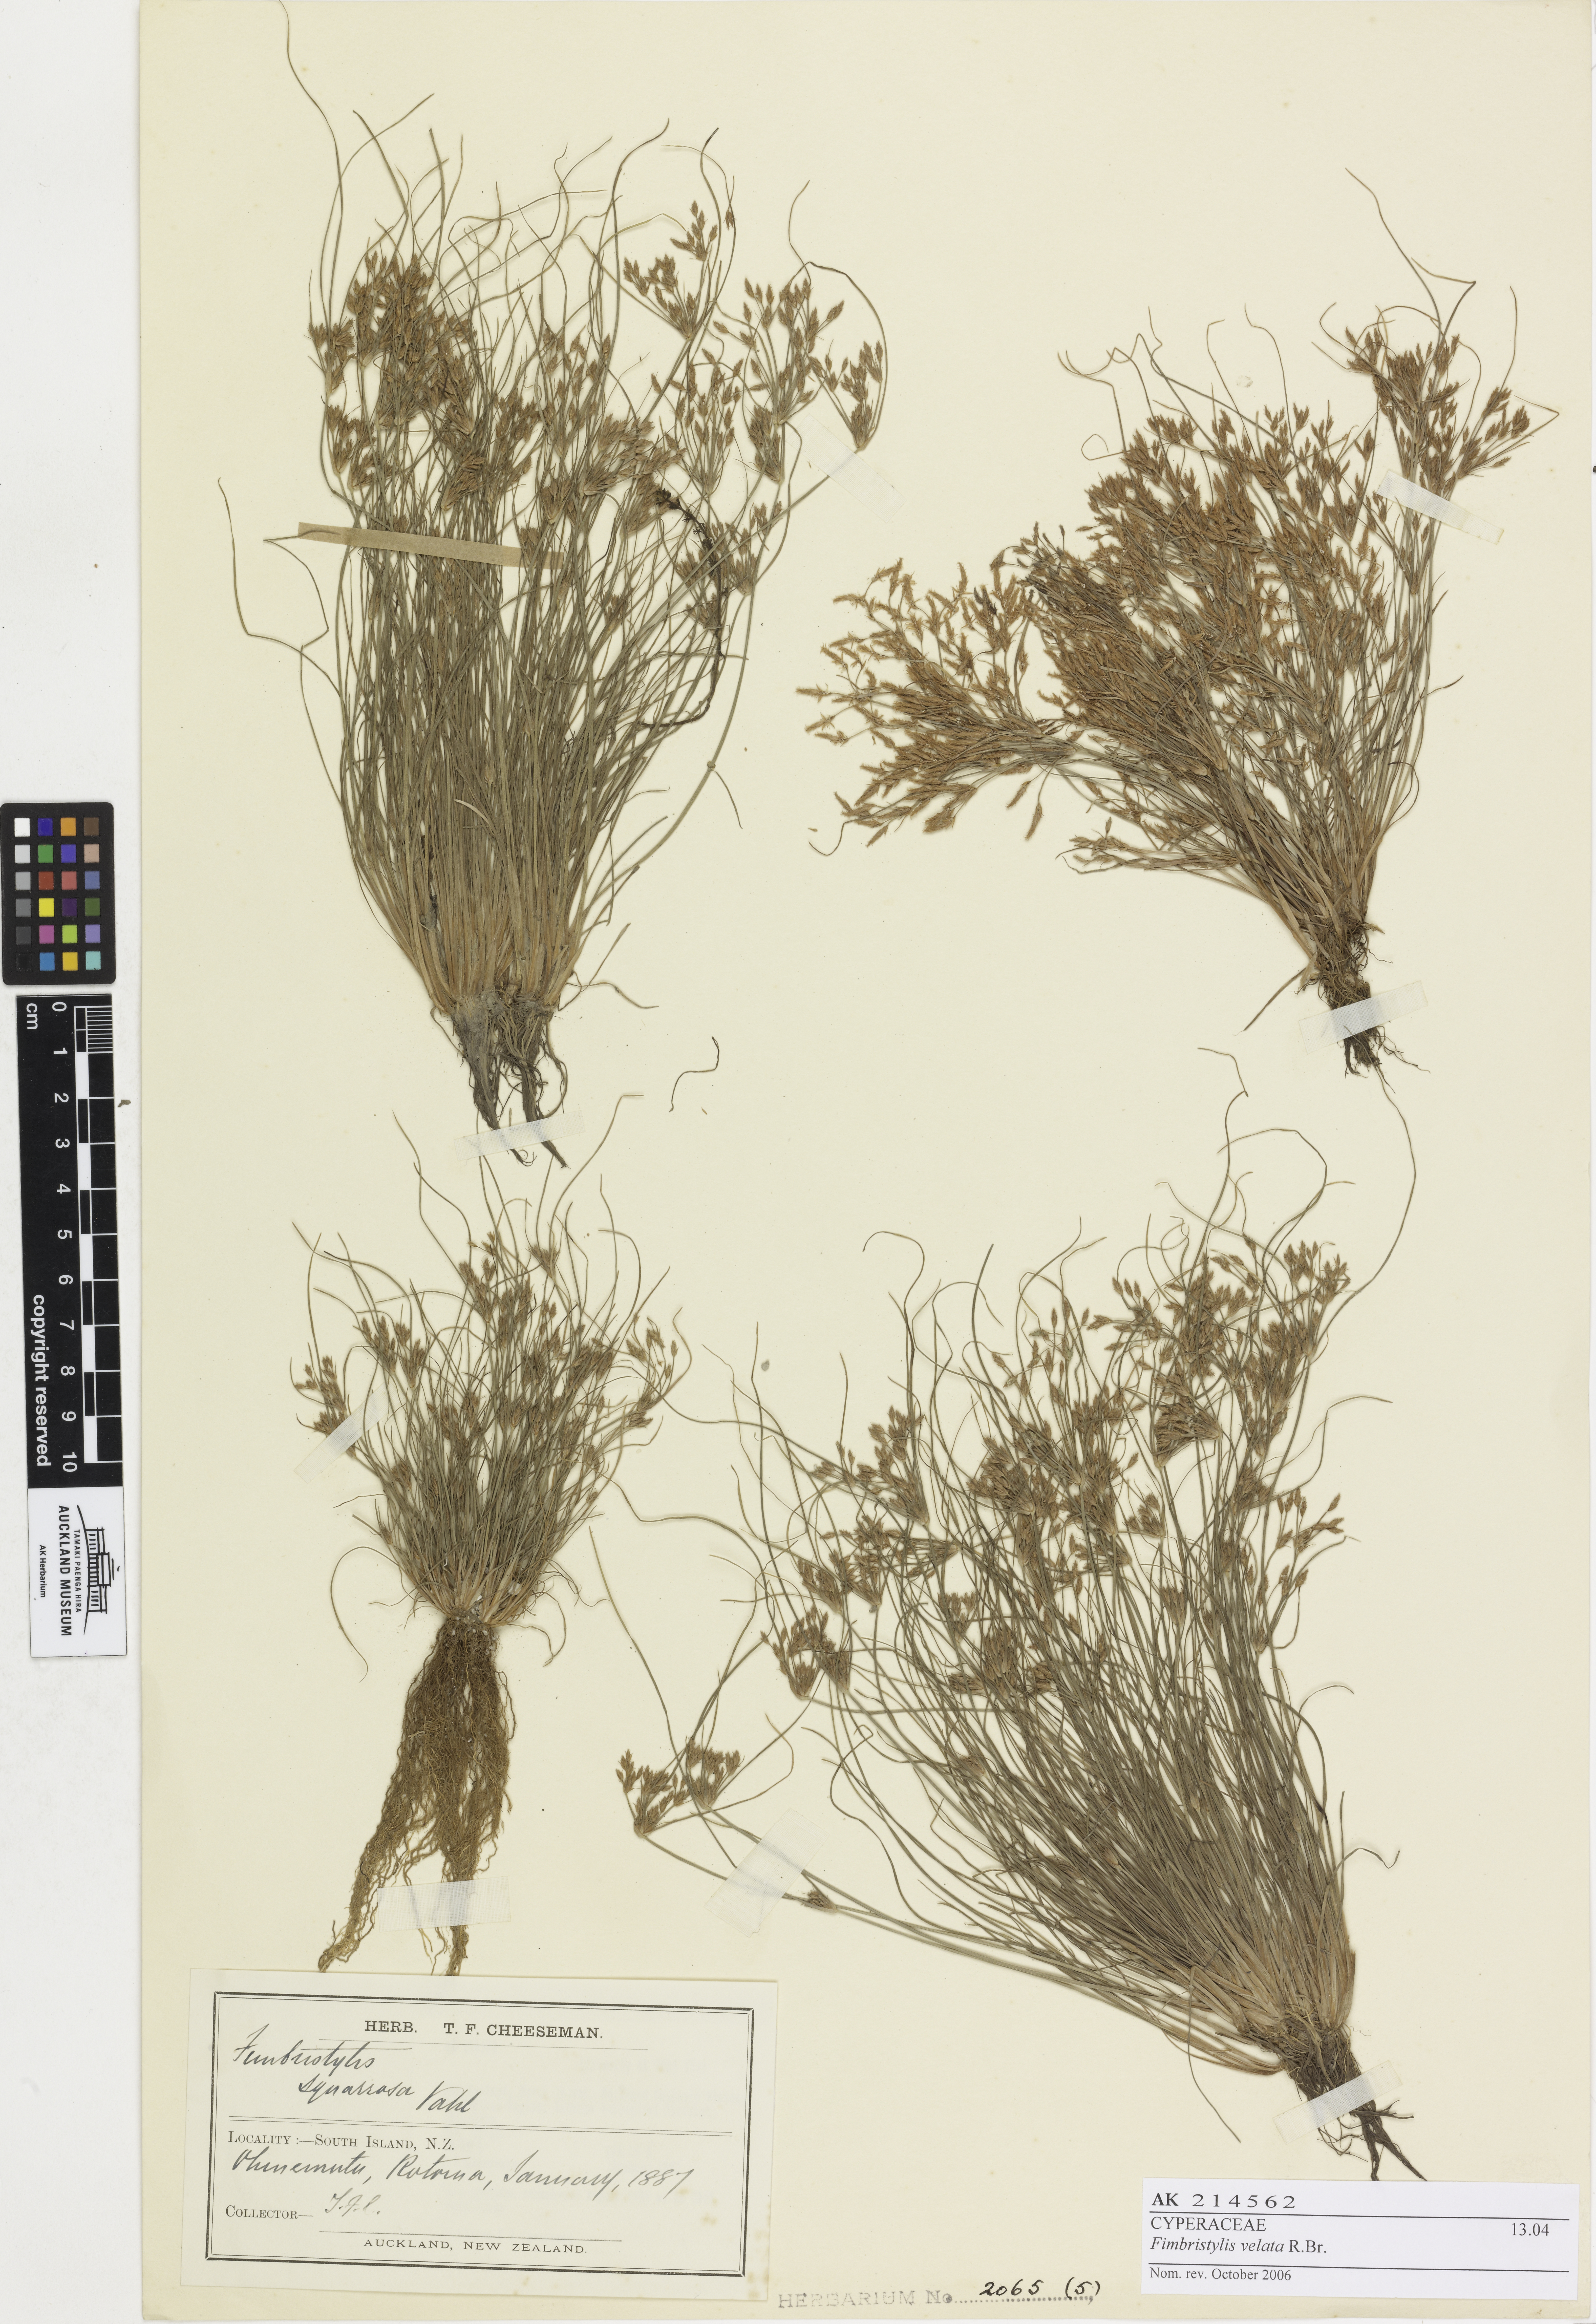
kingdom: Plantae
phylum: Tracheophyta
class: Liliopsida
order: Poales
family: Cyperaceae
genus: Fimbristylis
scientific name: Fimbristylis velata
